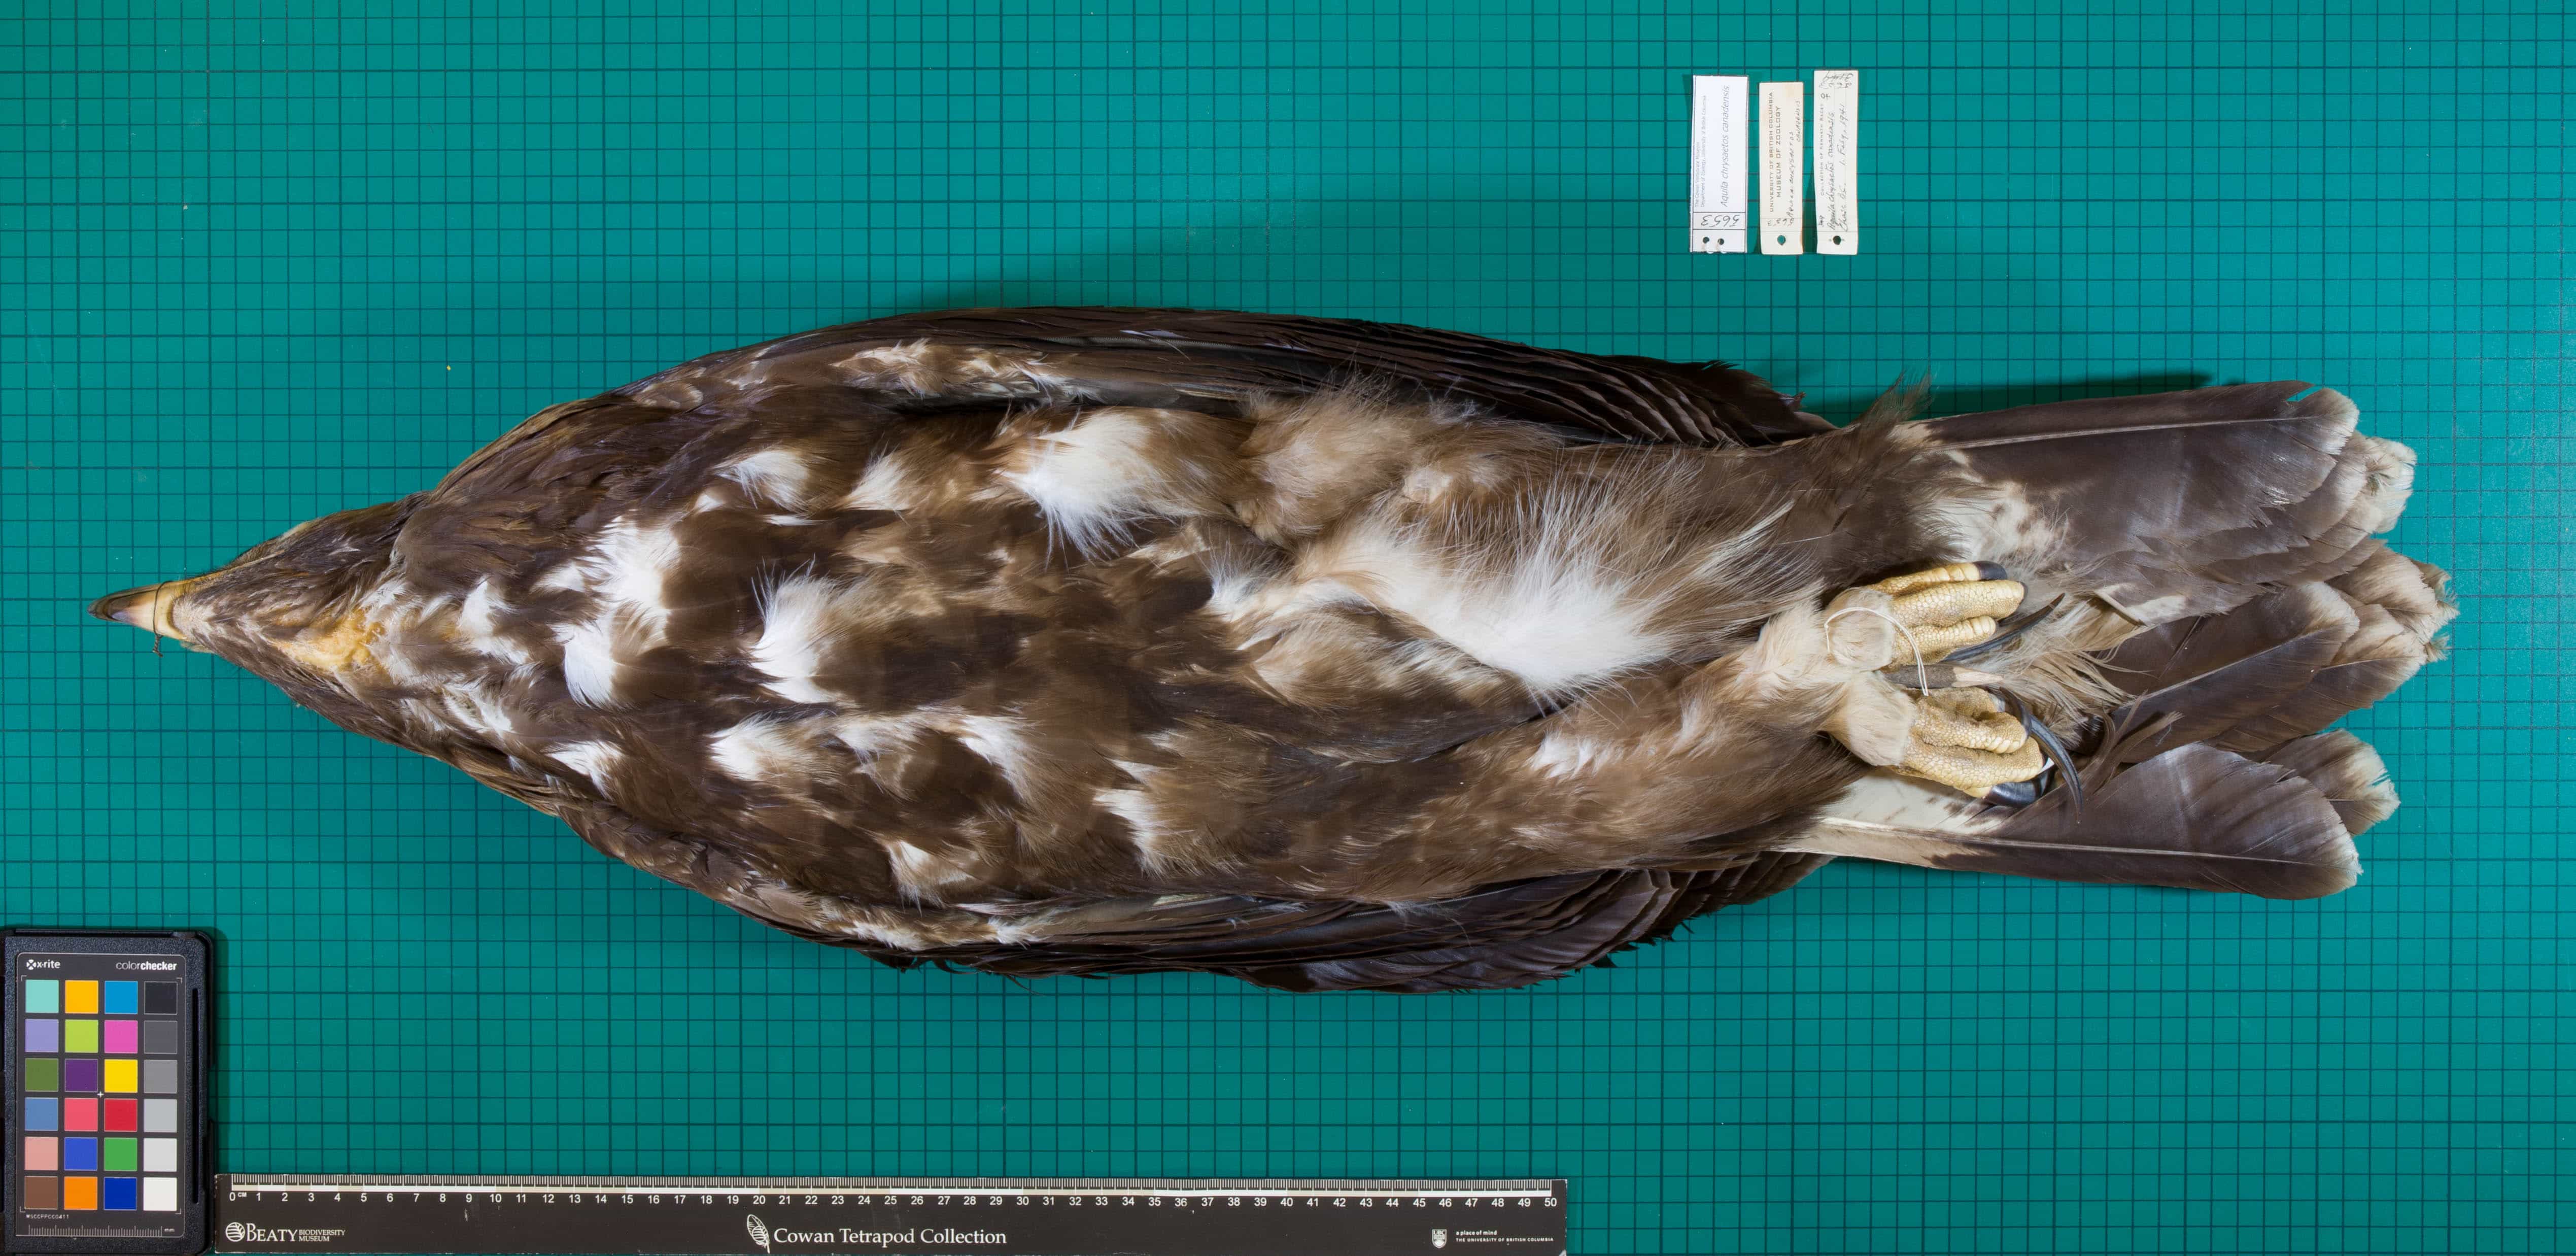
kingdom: Animalia
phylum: Chordata
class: Aves
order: Accipitriformes
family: Accipitridae
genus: Aquila
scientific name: Aquila chrysaetos
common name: Golden Eagle
